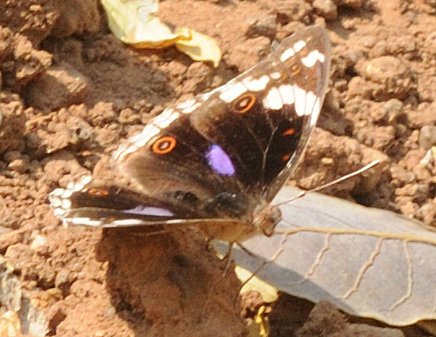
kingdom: Animalia
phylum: Arthropoda
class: Insecta
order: Lepidoptera
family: Nymphalidae
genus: Junonia
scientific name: Junonia oenone
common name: Dark blue pansy
